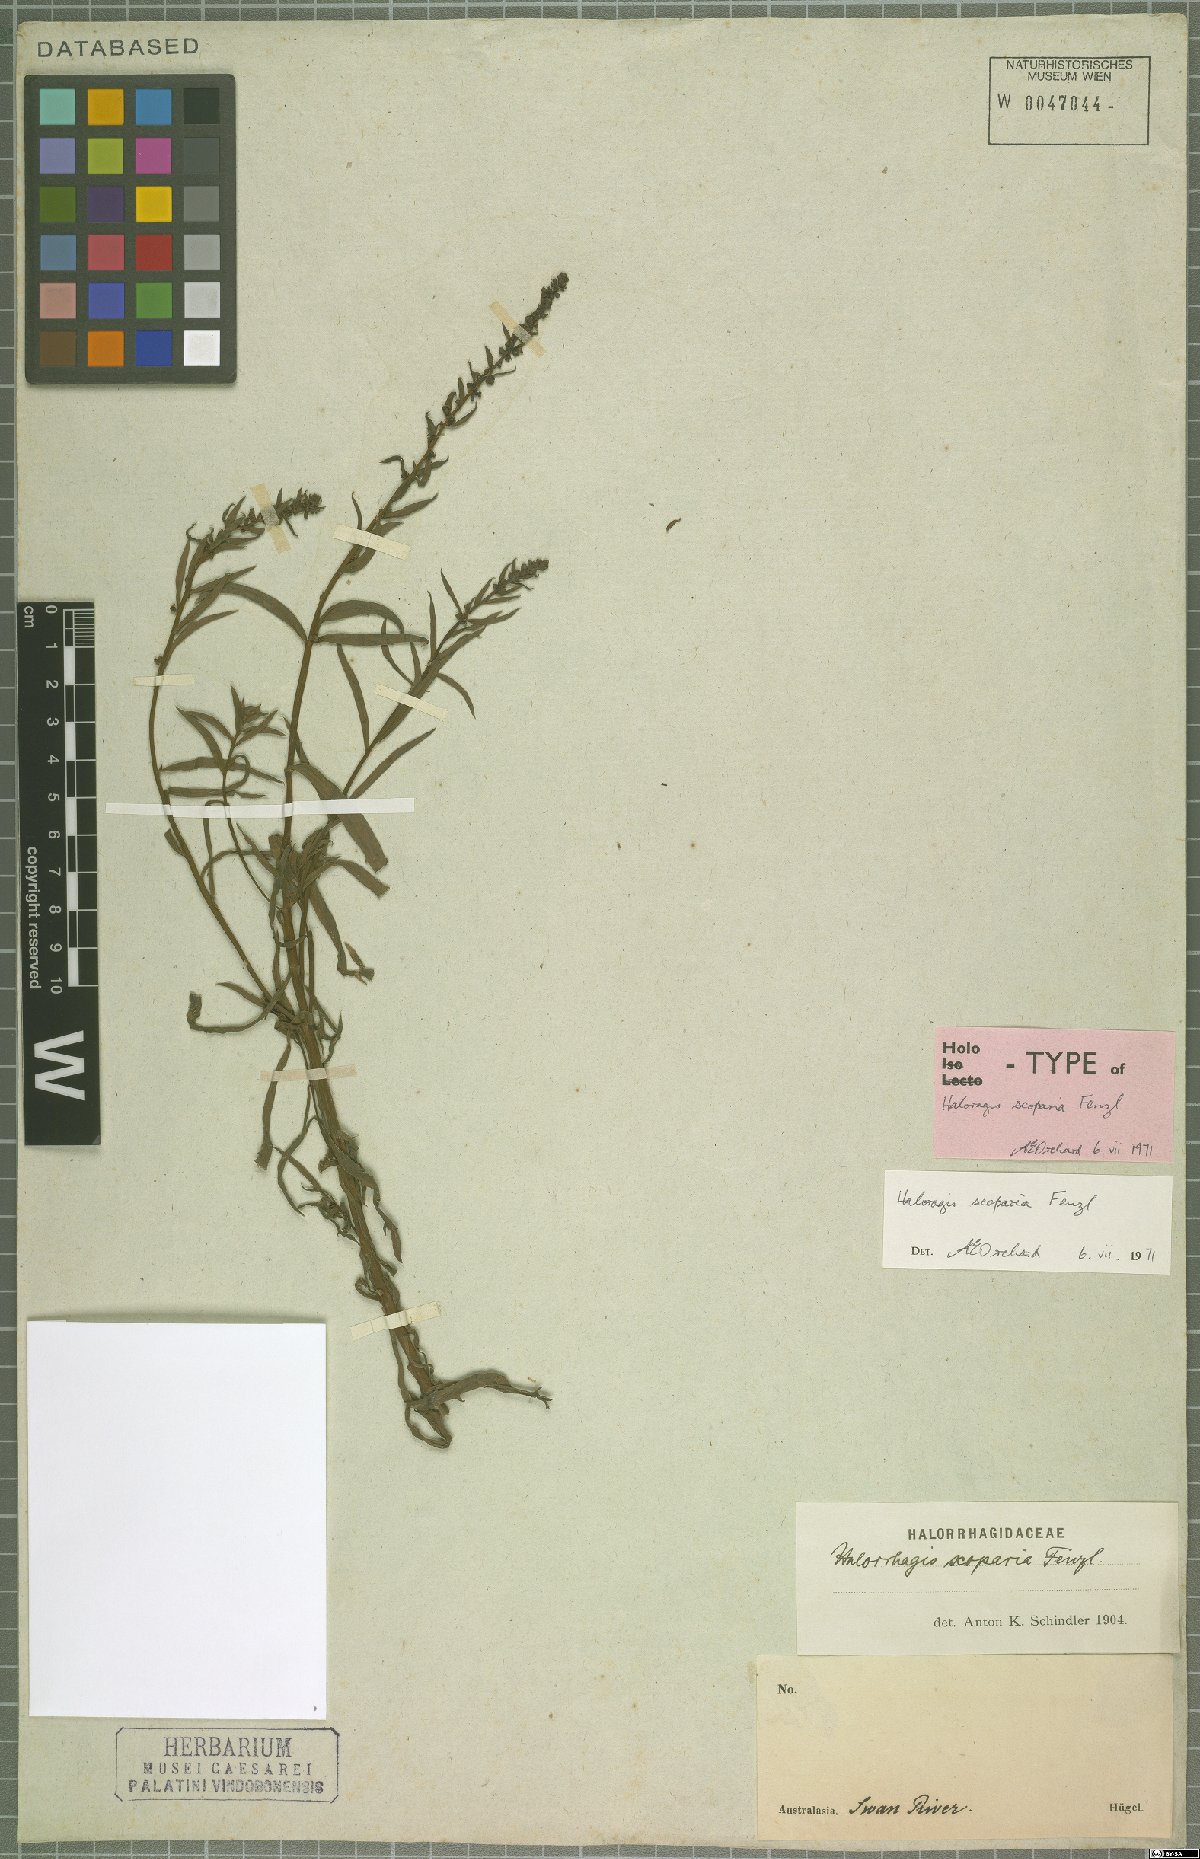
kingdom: Plantae
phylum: Tracheophyta
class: Magnoliopsida
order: Saxifragales
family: Haloragaceae
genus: Haloragis
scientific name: Haloragis scoparia
